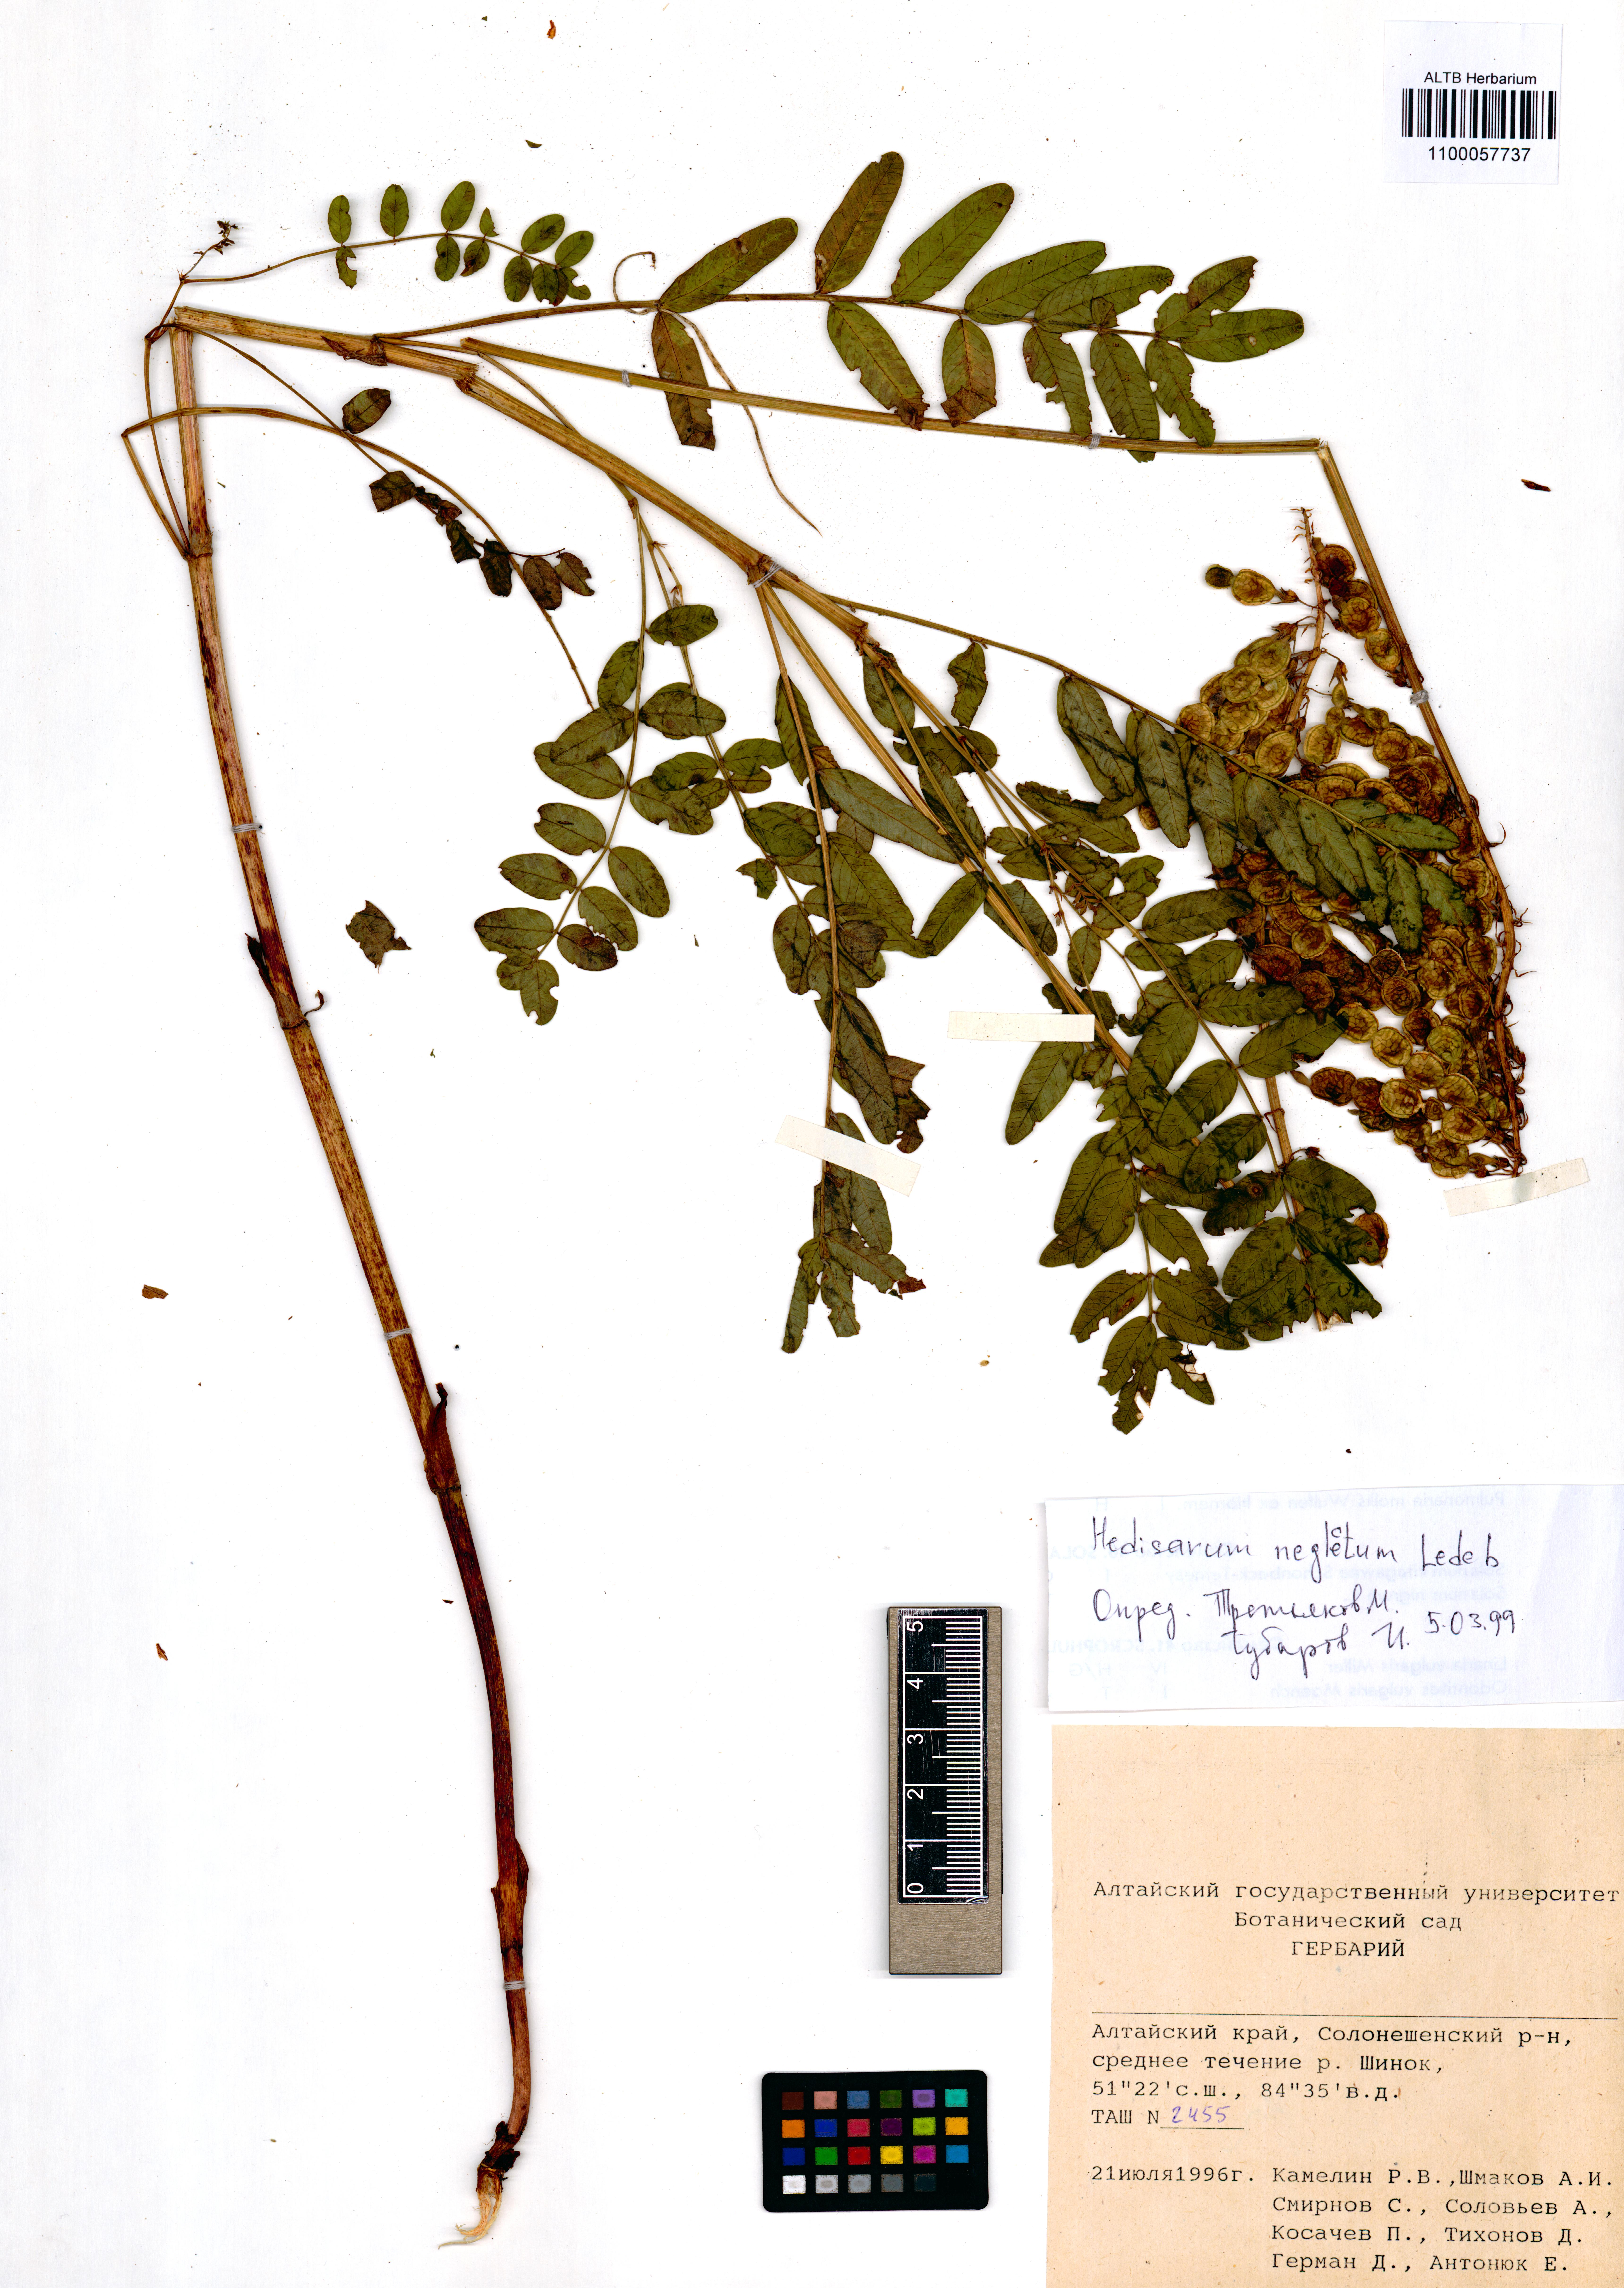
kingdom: Plantae
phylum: Tracheophyta
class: Magnoliopsida
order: Fabales
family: Fabaceae
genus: Hedysarum
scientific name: Hedysarum neglectum
